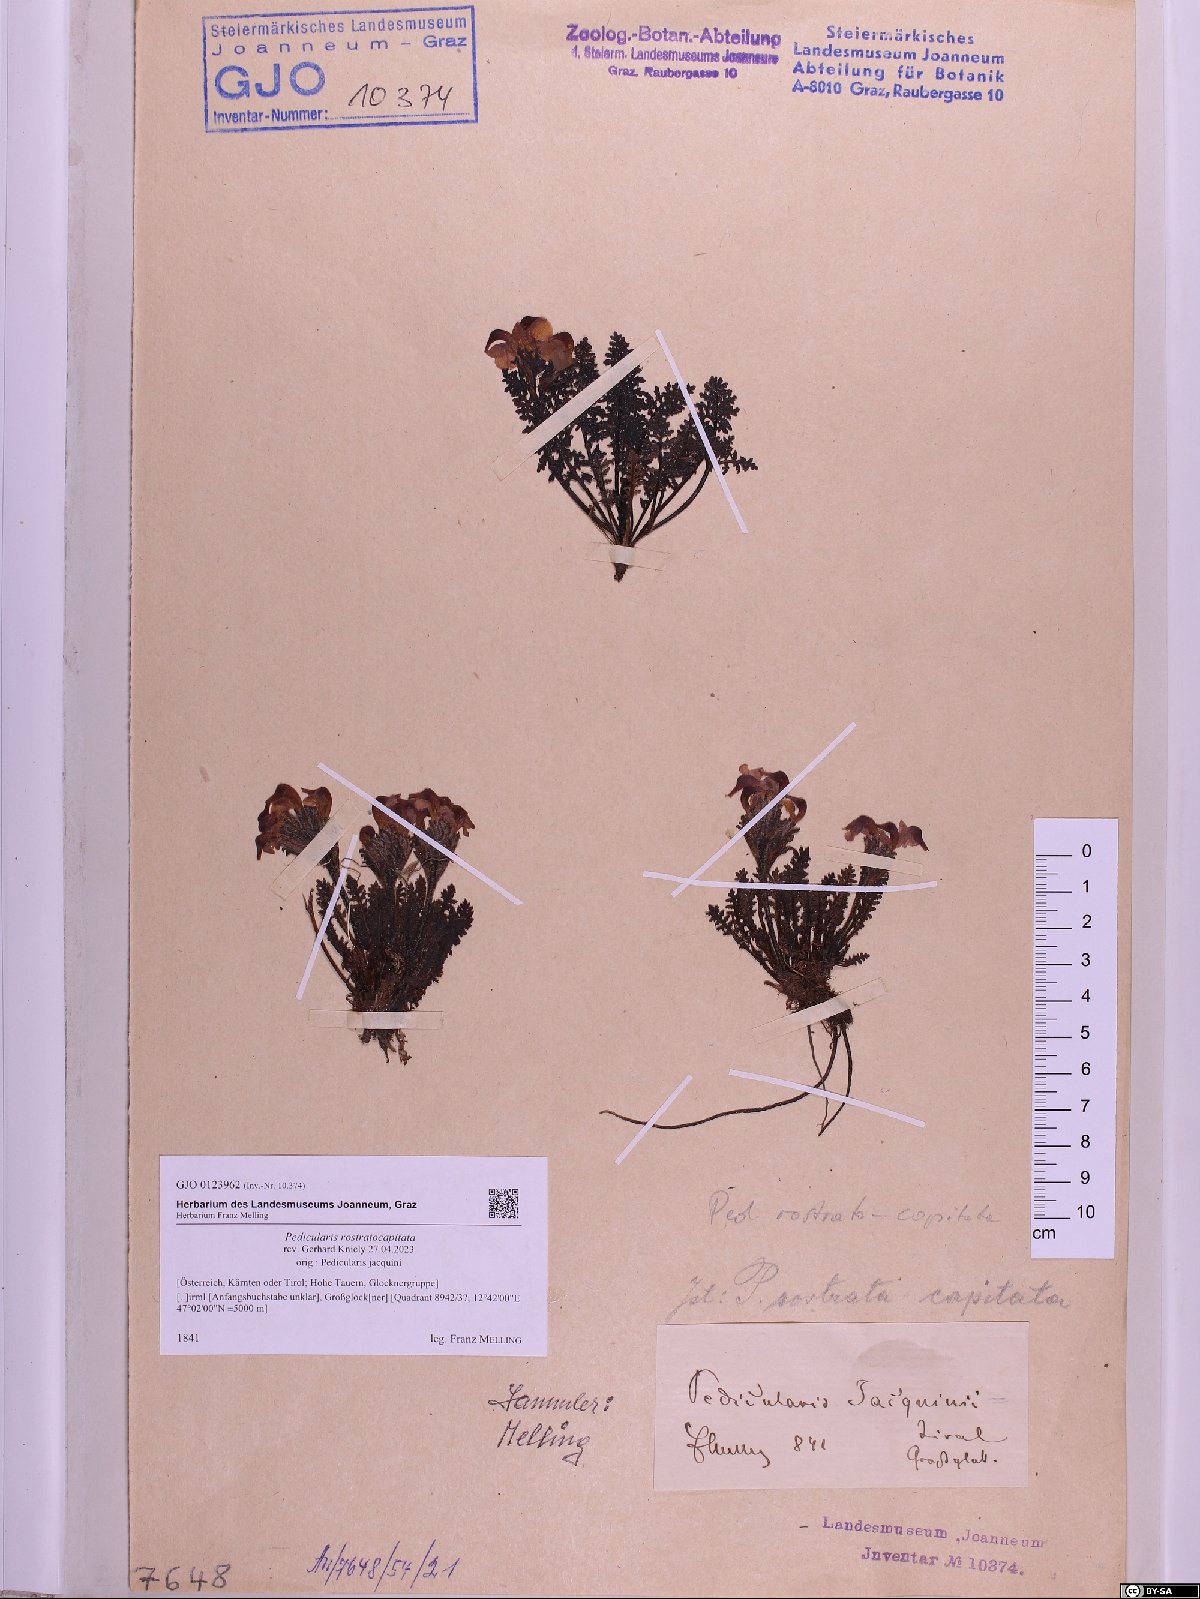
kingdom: Plantae
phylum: Tracheophyta
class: Magnoliopsida
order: Lamiales
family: Orobanchaceae
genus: Pedicularis
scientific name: Pedicularis rostratocapitata
